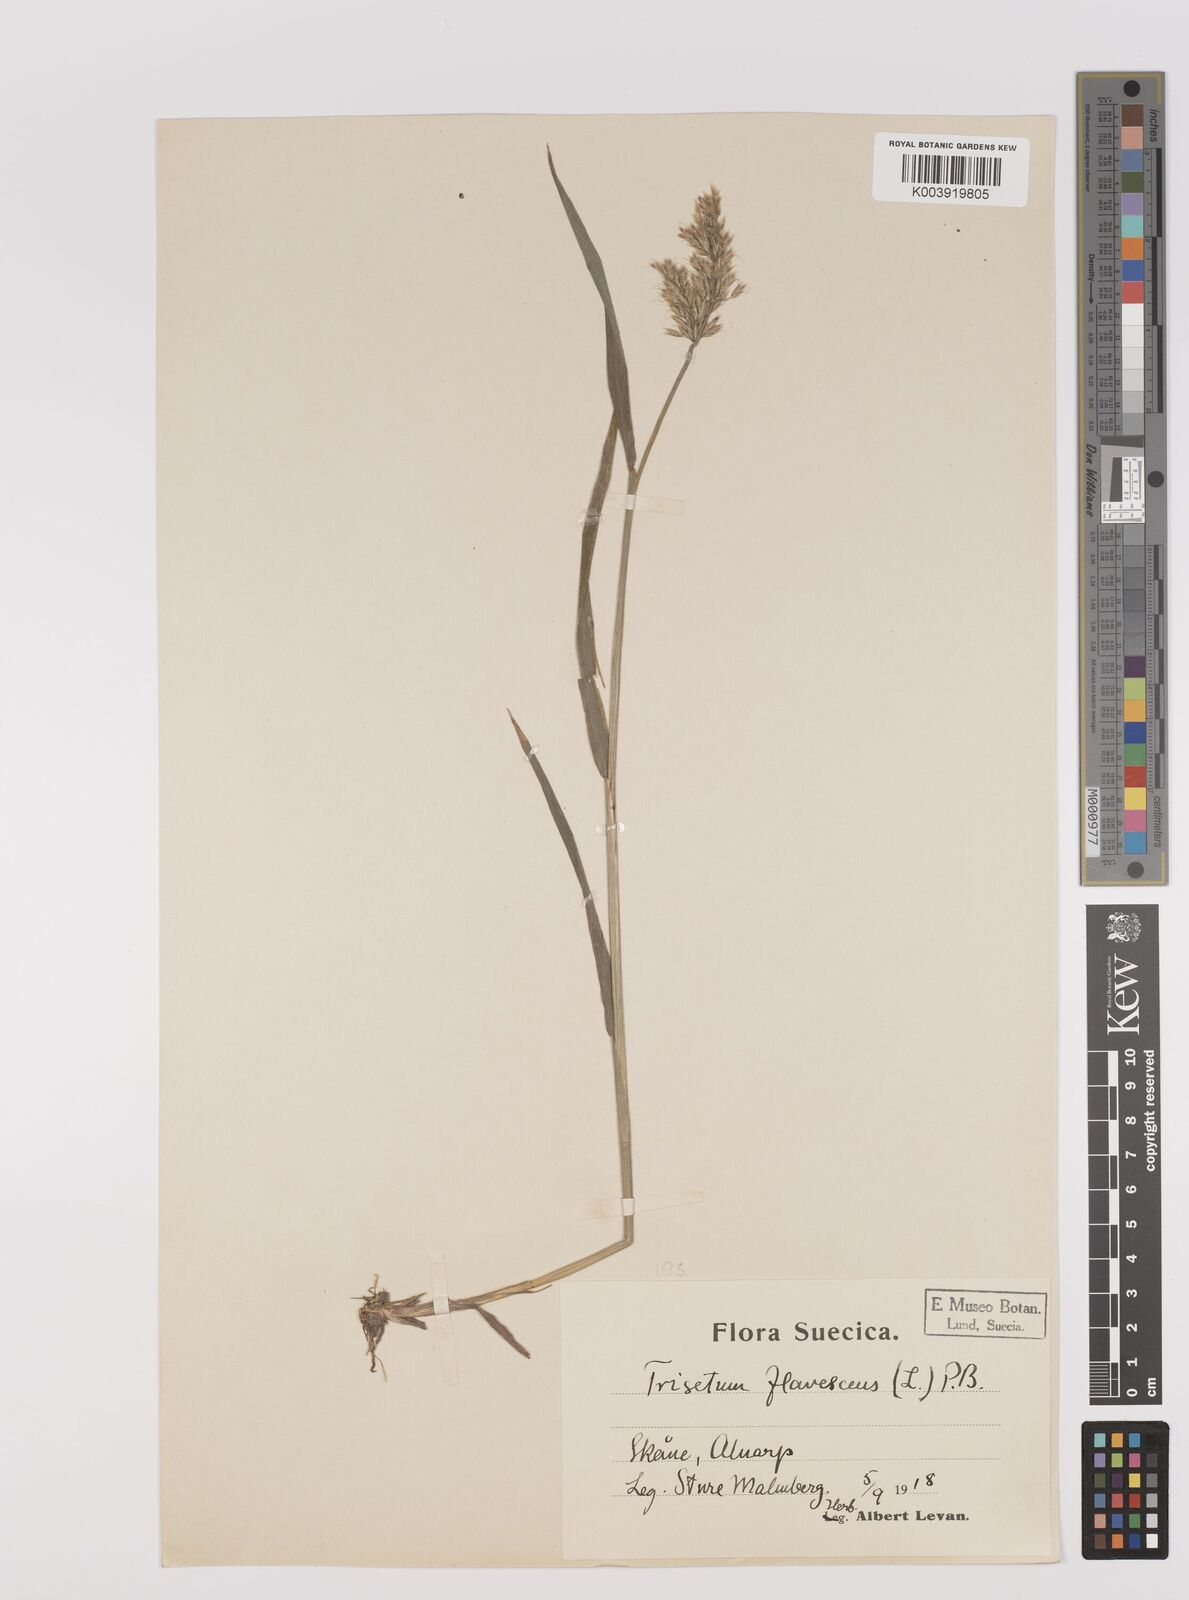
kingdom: Plantae
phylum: Tracheophyta
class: Liliopsida
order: Poales
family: Poaceae
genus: Trisetum
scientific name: Trisetum flavescens
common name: Yellow oat-grass
